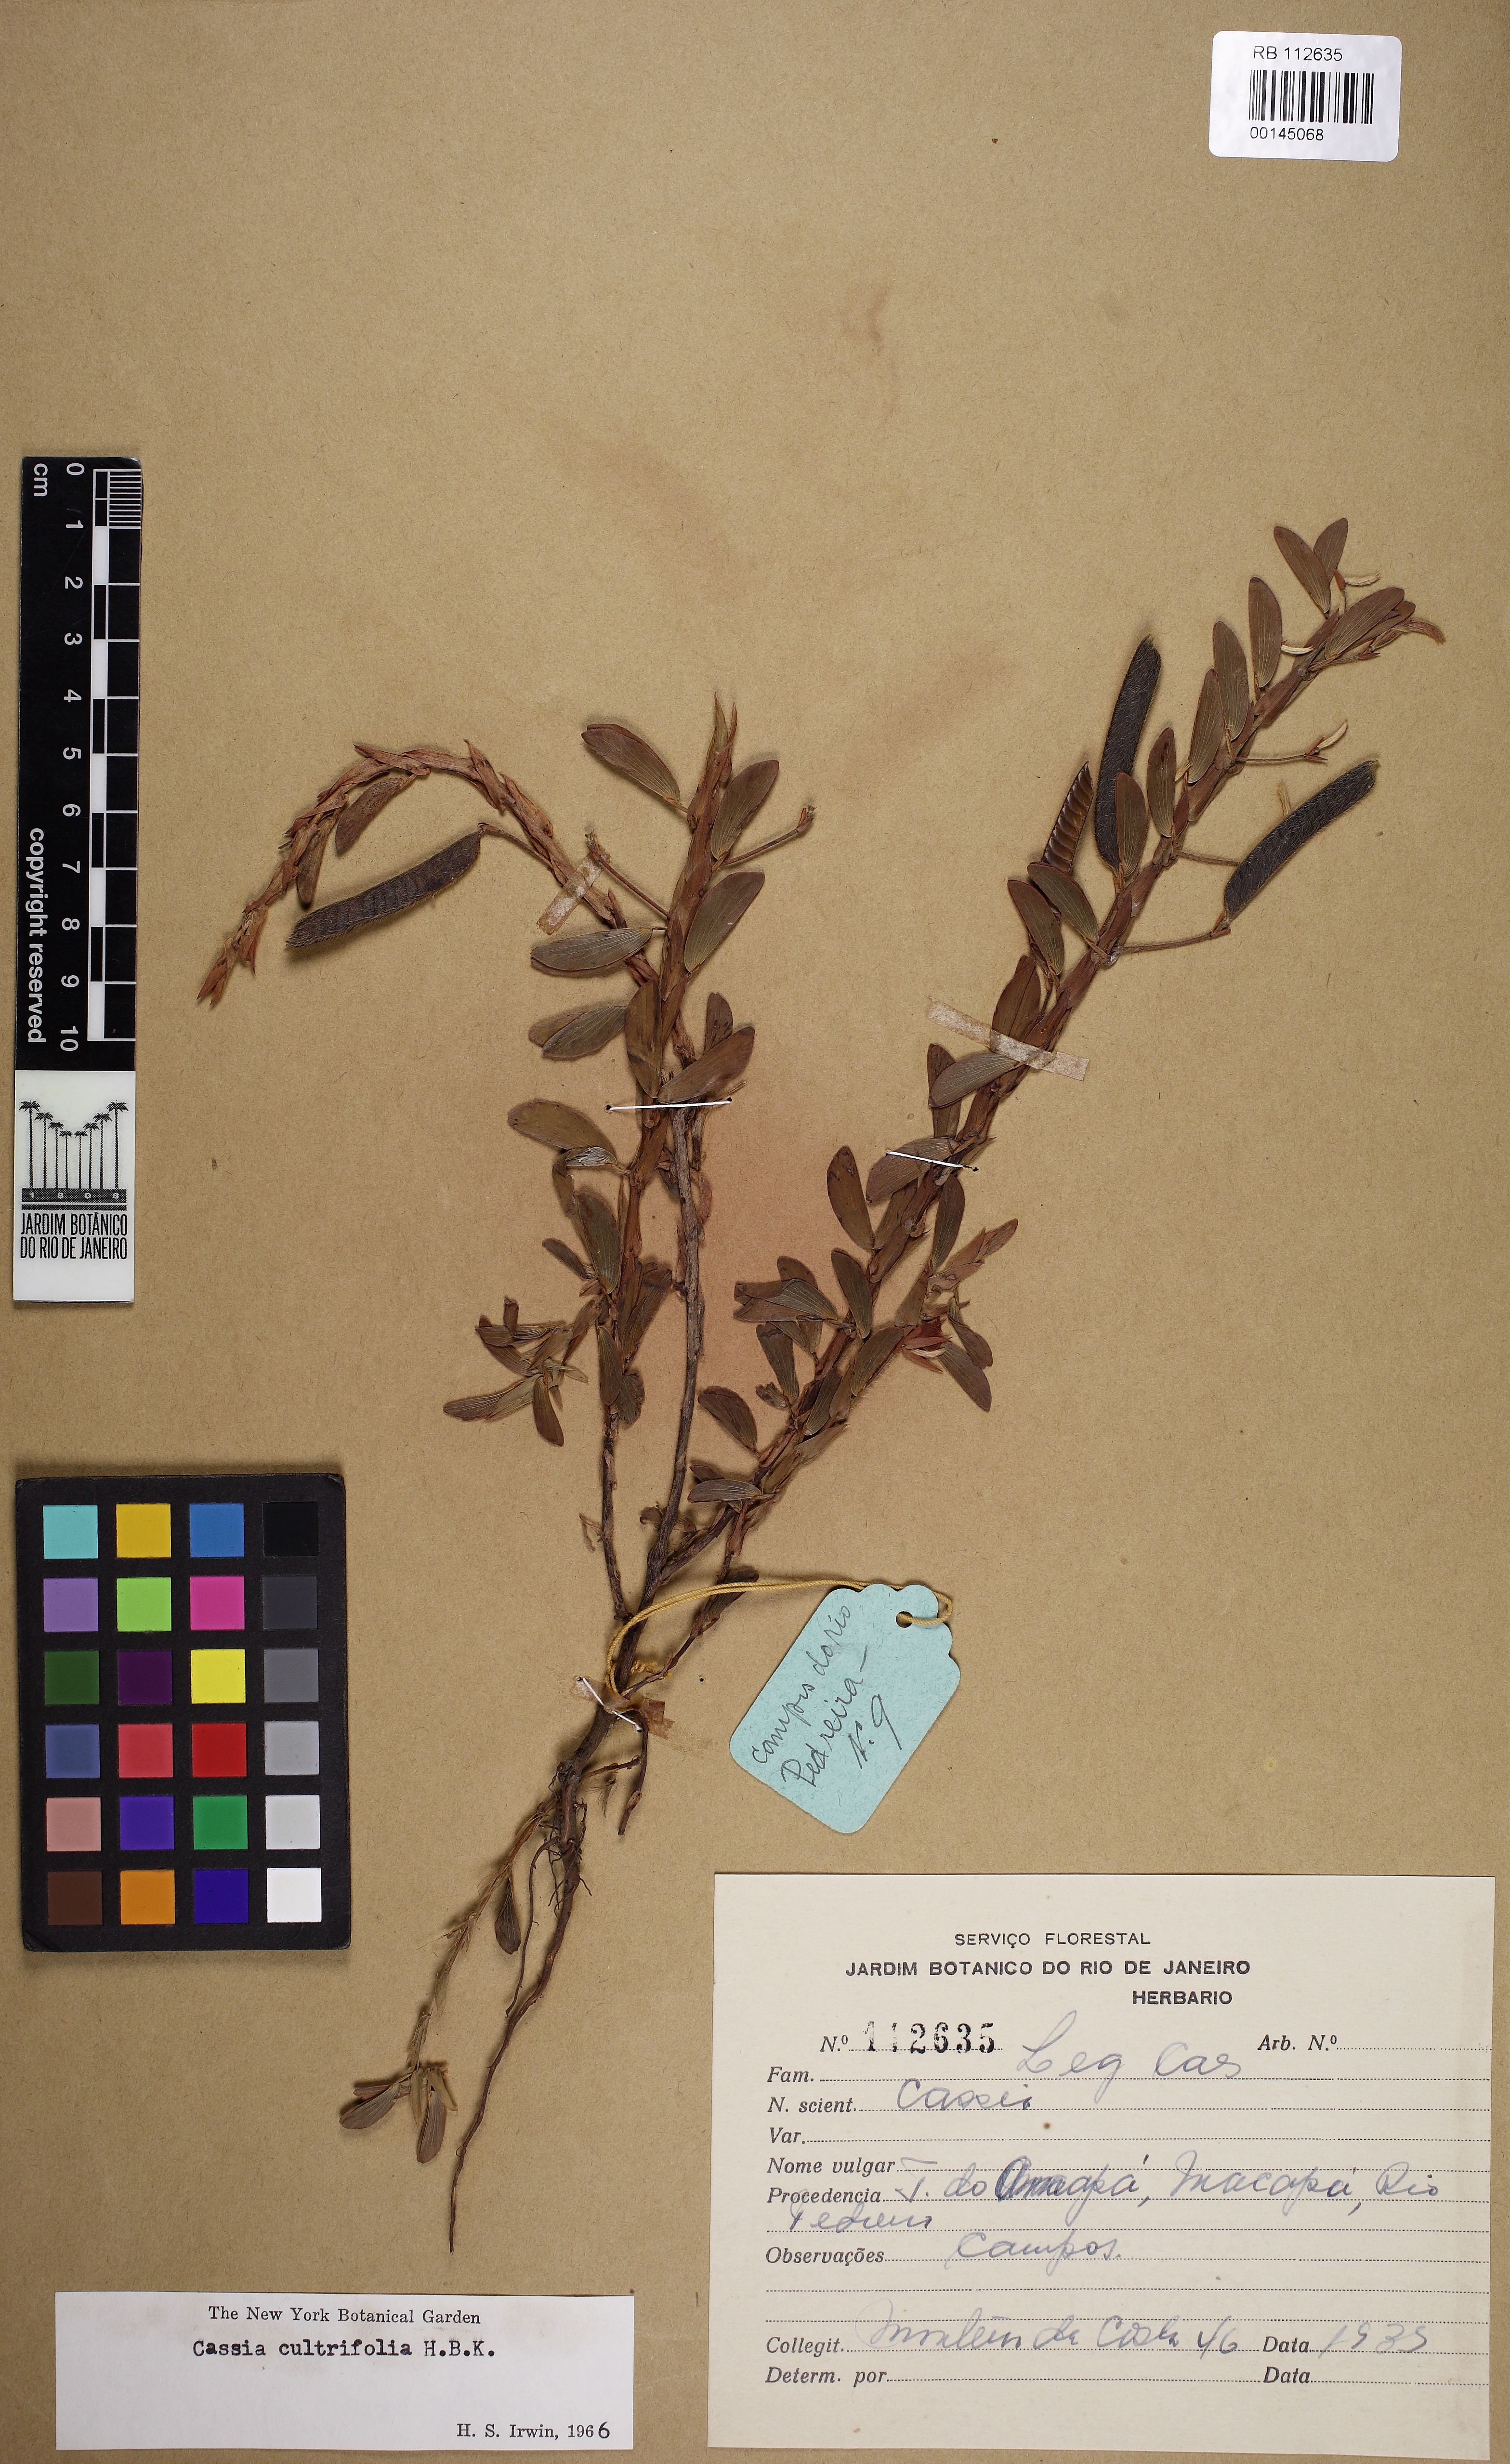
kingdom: Plantae
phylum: Tracheophyta
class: Magnoliopsida
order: Fabales
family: Fabaceae
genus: Chamaecrista
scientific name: Chamaecrista cultrifolia
